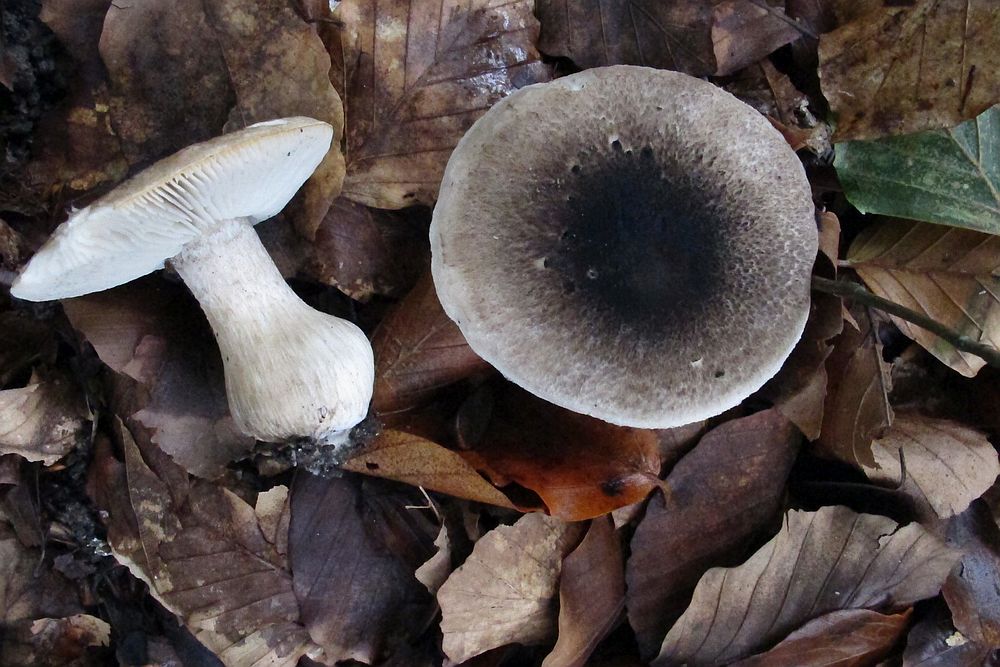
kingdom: Fungi
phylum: Basidiomycota
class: Agaricomycetes
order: Agaricales
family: Tricholomataceae
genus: Tricholoma
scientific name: Tricholoma basirubens
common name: rødfodet ridderhat
